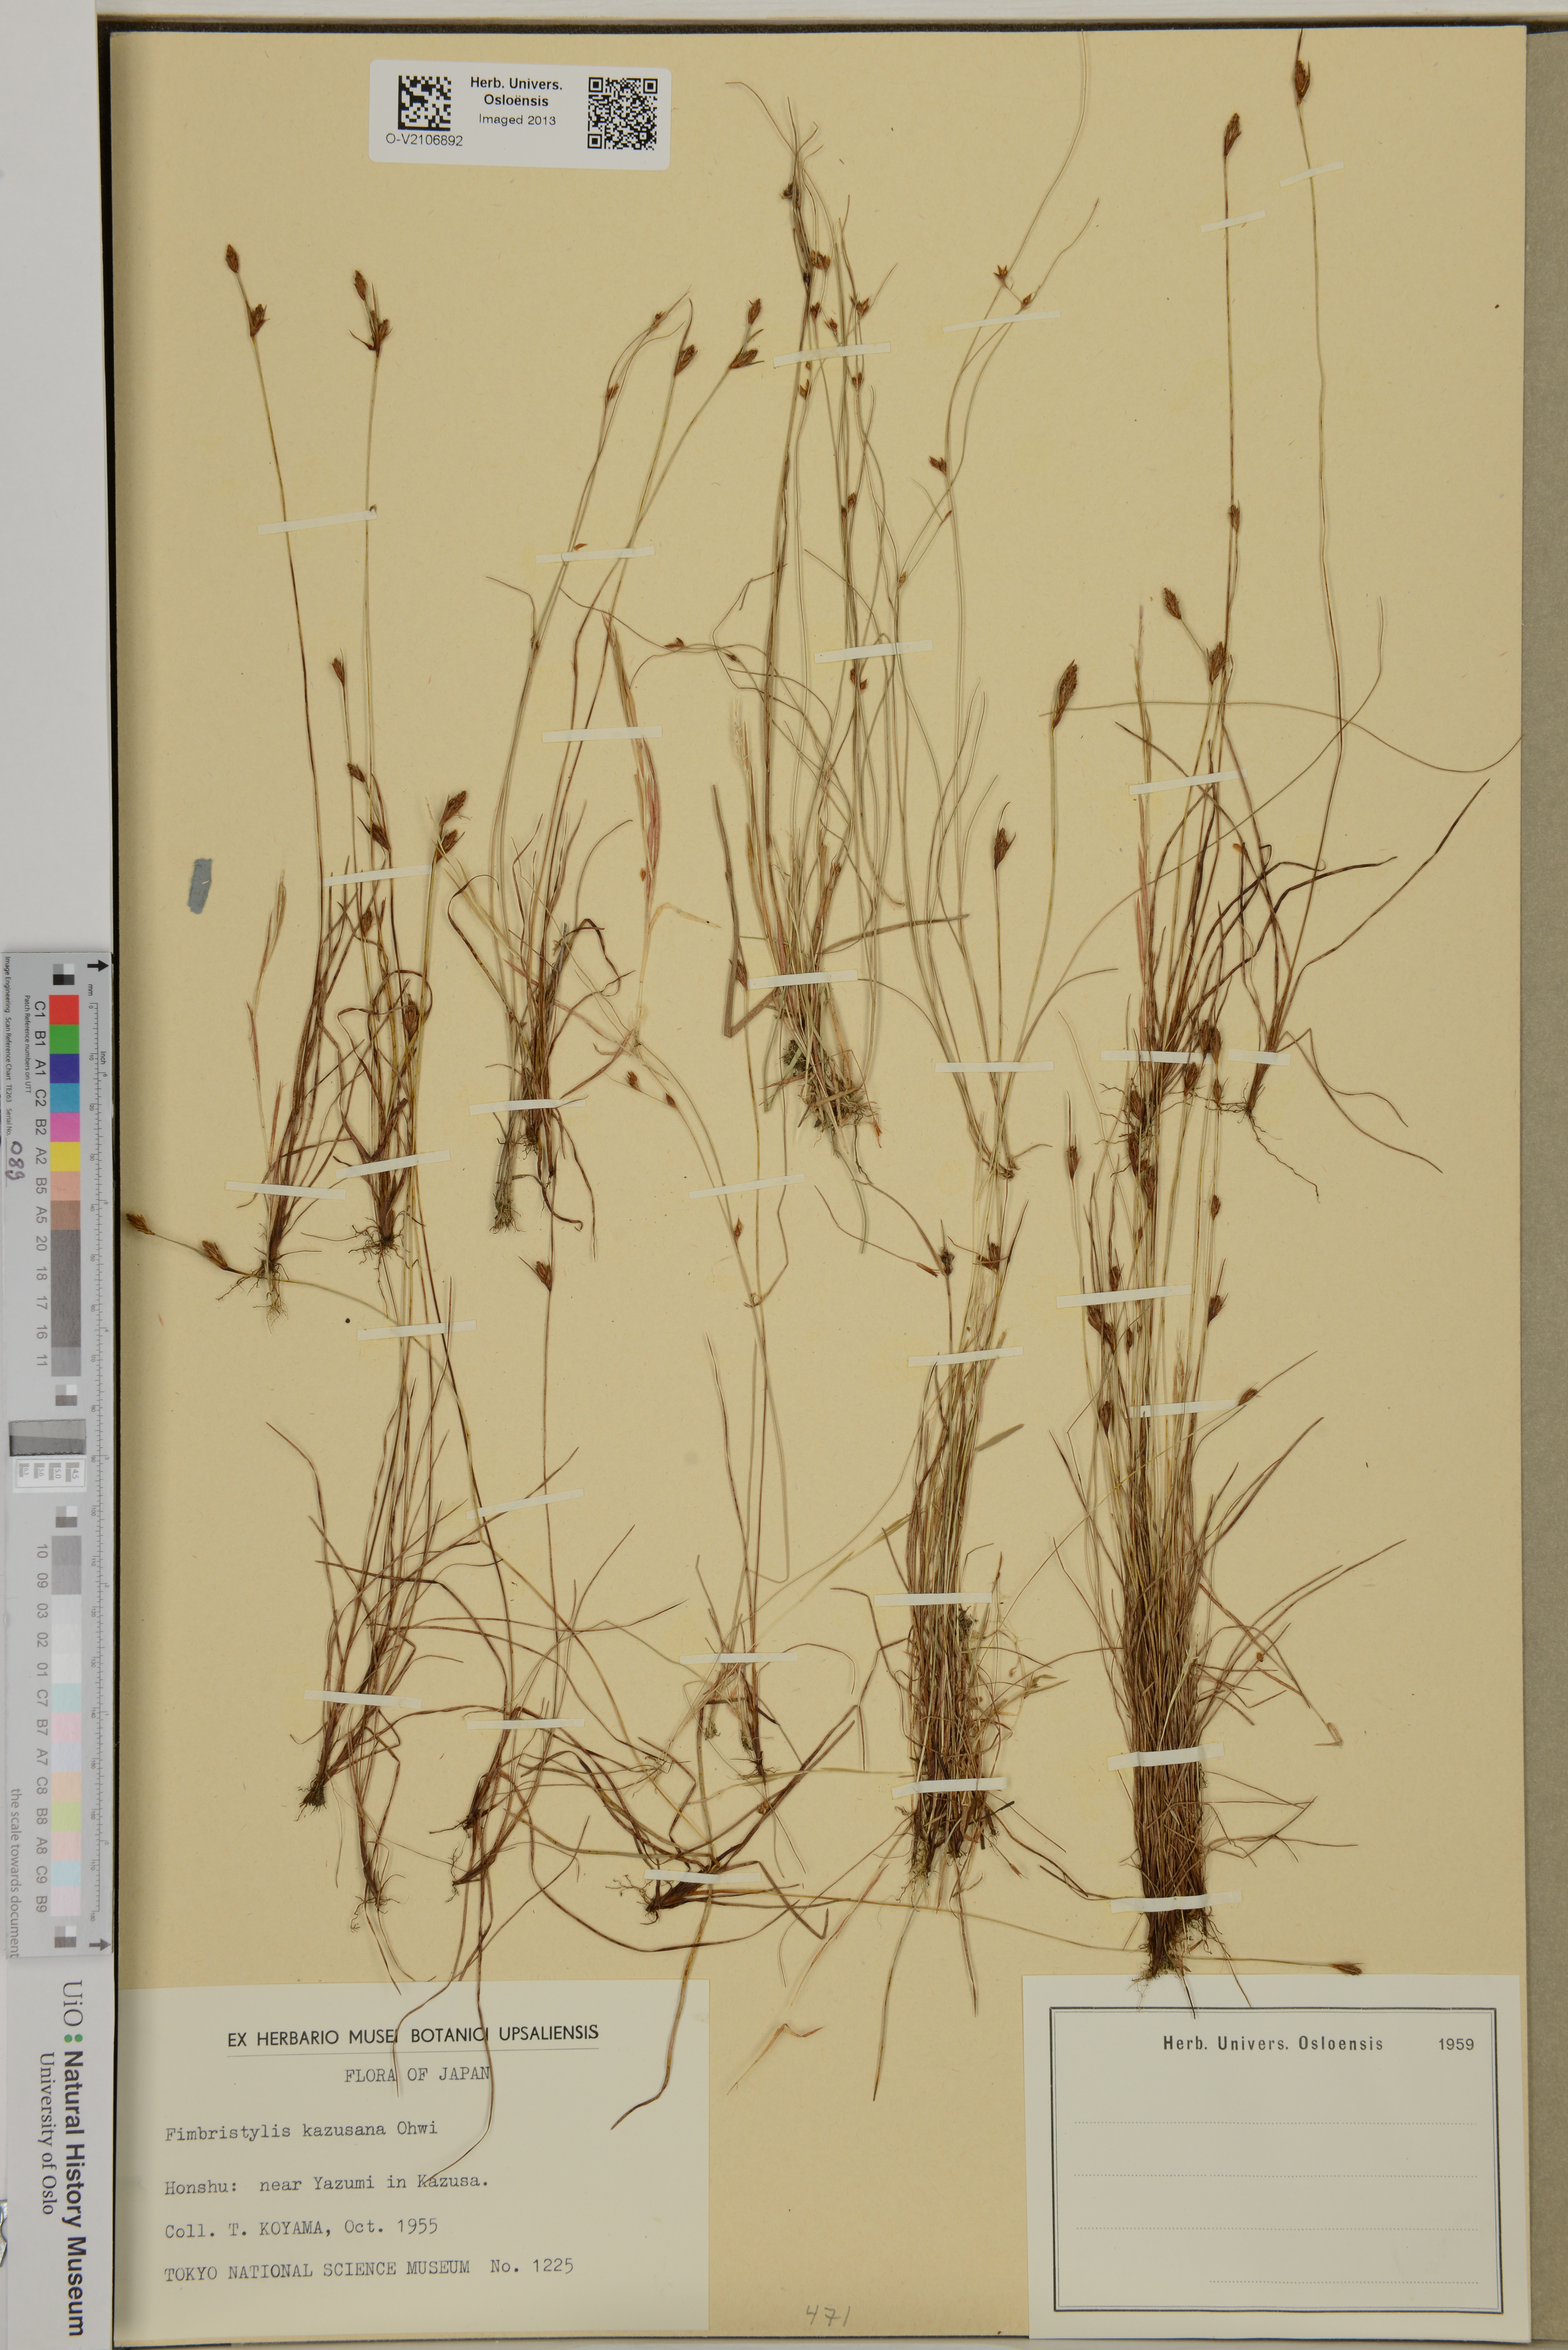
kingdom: Plantae
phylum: Tracheophyta
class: Liliopsida
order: Poales
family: Cyperaceae
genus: Fimbristylis
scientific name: Fimbristylis kadzusana
